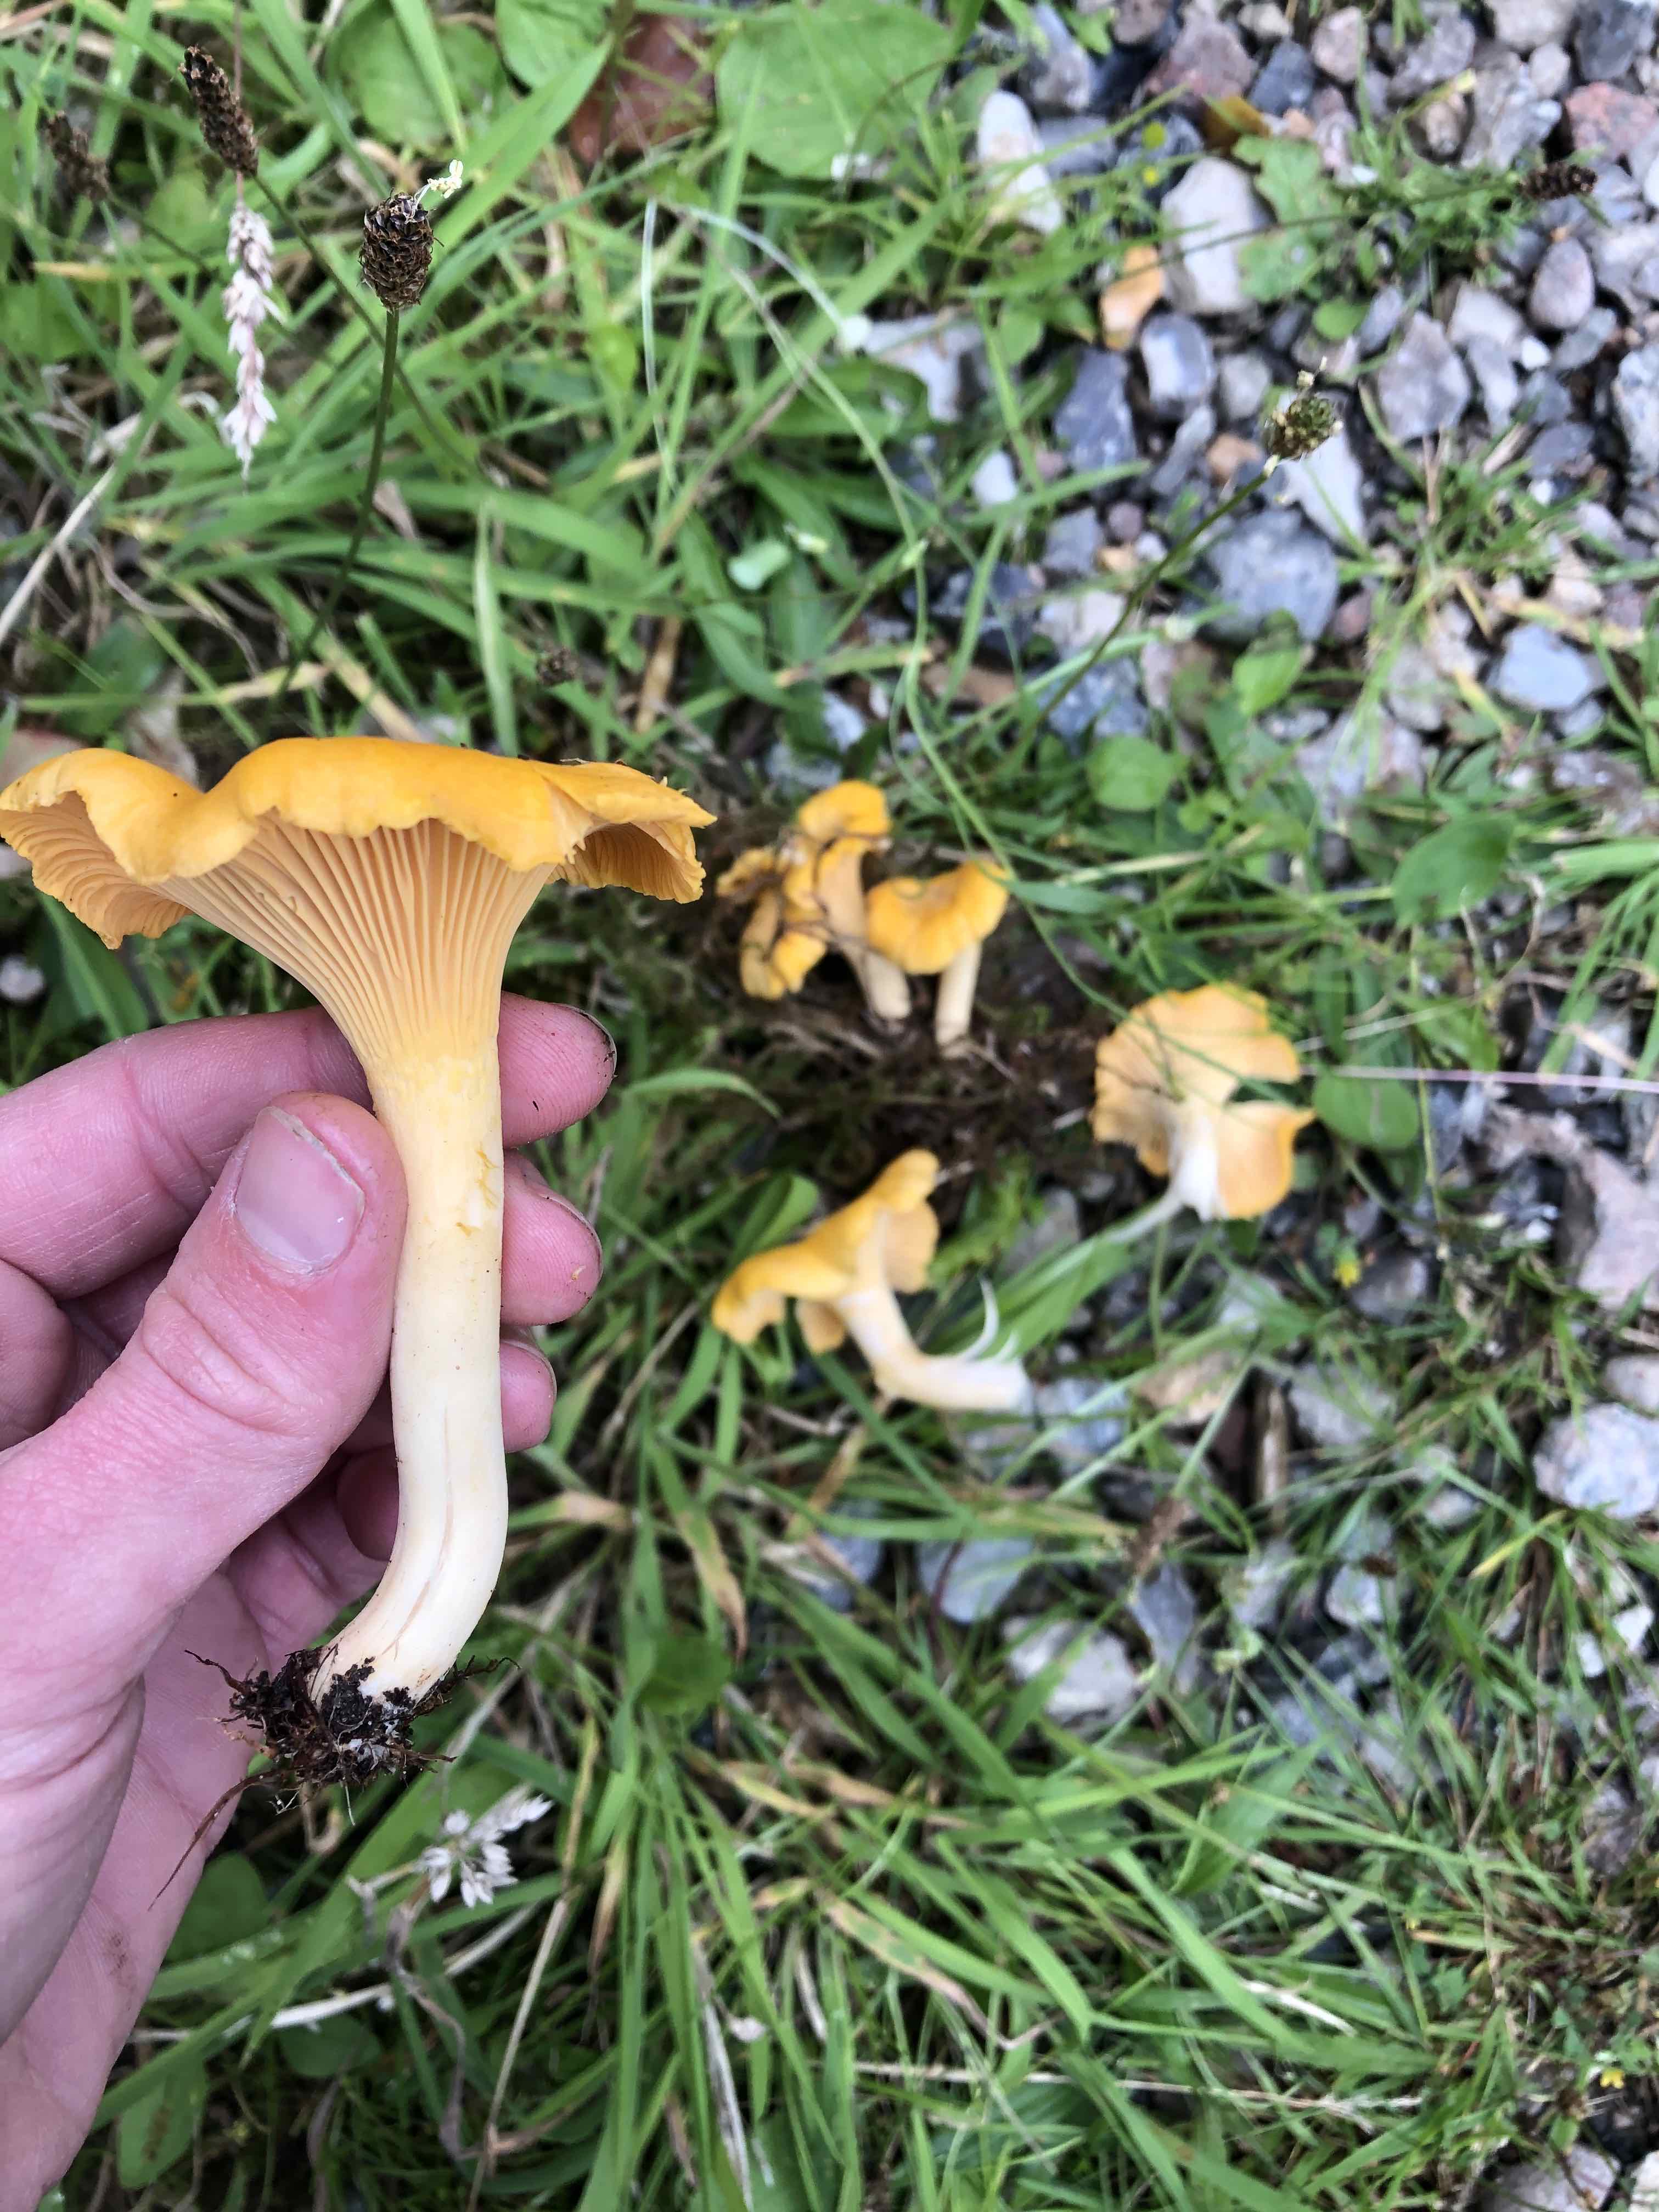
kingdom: Fungi
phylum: Basidiomycota
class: Agaricomycetes
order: Cantharellales
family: Hydnaceae
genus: Cantharellus
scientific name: Cantharellus cibarius
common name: almindelig kantarel
